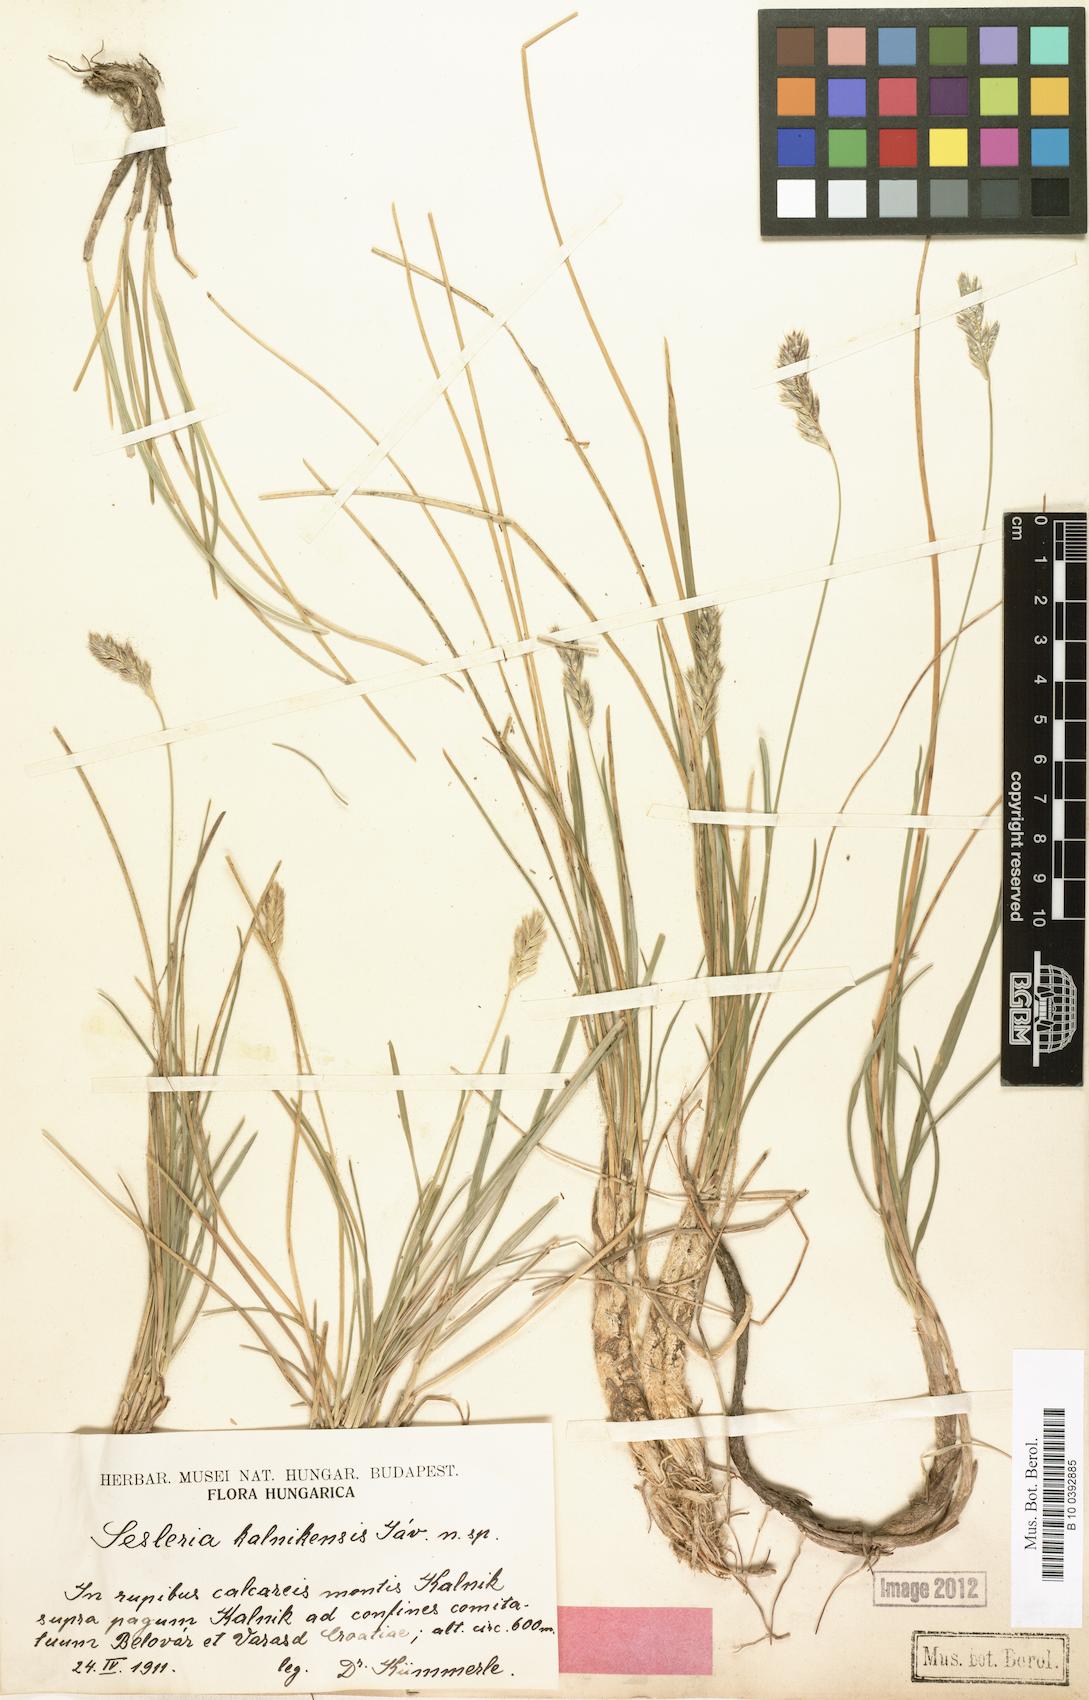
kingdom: Plantae
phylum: Tracheophyta
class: Liliopsida
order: Poales
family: Poaceae
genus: Sesleria
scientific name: Sesleria kalnikensis
